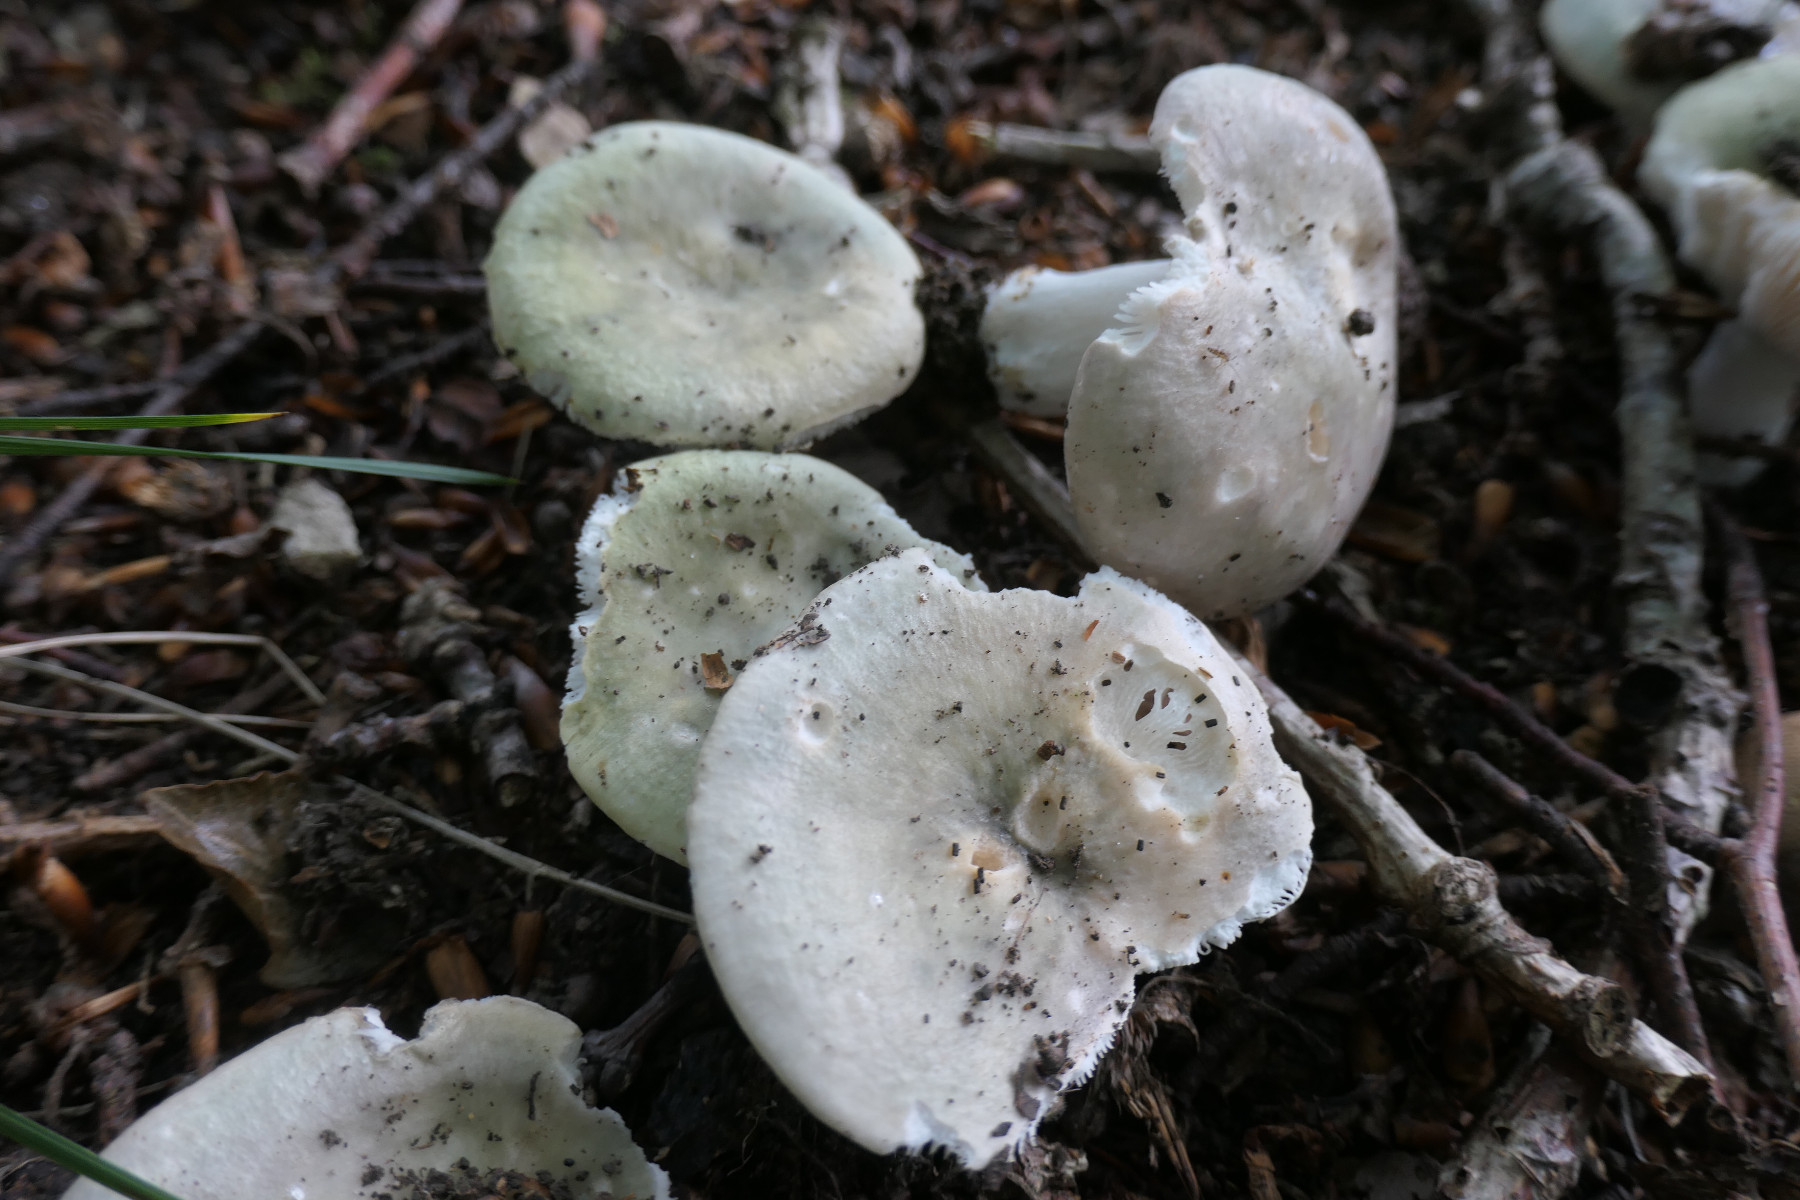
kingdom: Fungi
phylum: Basidiomycota
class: Agaricomycetes
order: Russulales
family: Russulaceae
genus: Russula
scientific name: Russula cyanoxantha
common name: broget skørhat
